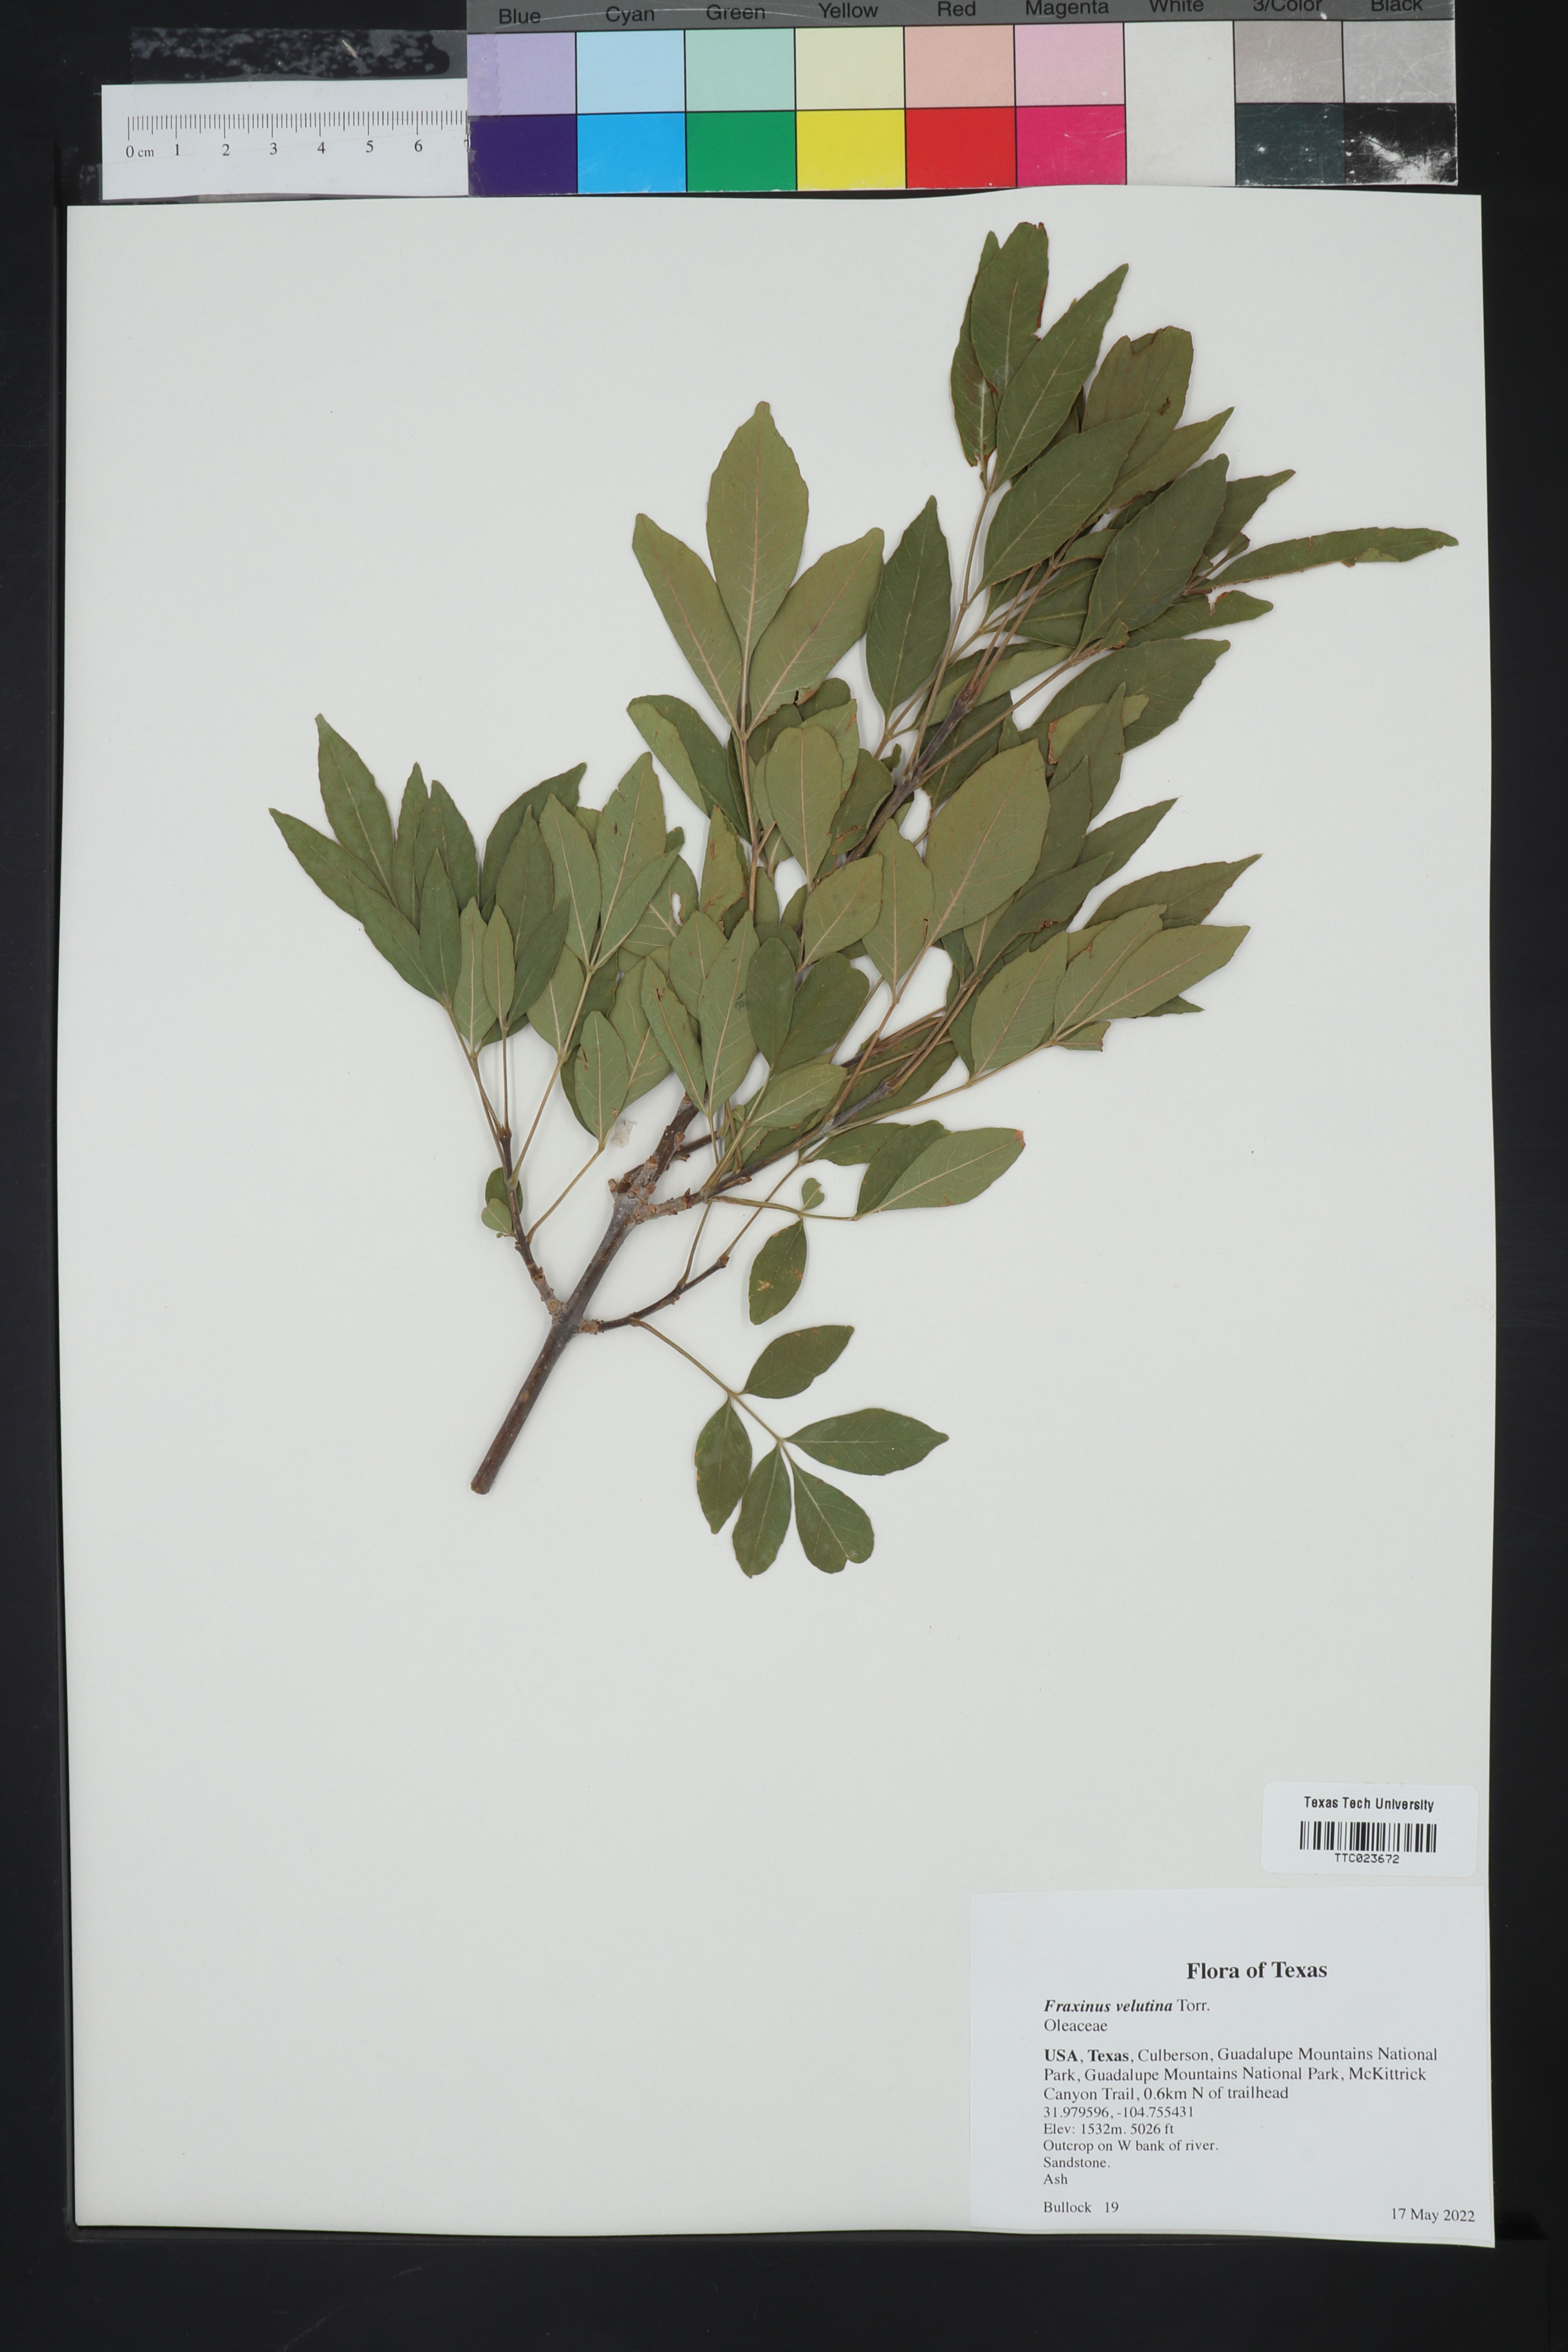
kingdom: Plantae
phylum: Tracheophyta
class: Magnoliopsida
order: Lamiales
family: Oleaceae
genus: Fraxinus
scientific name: Fraxinus velutina
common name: Arizon ash
